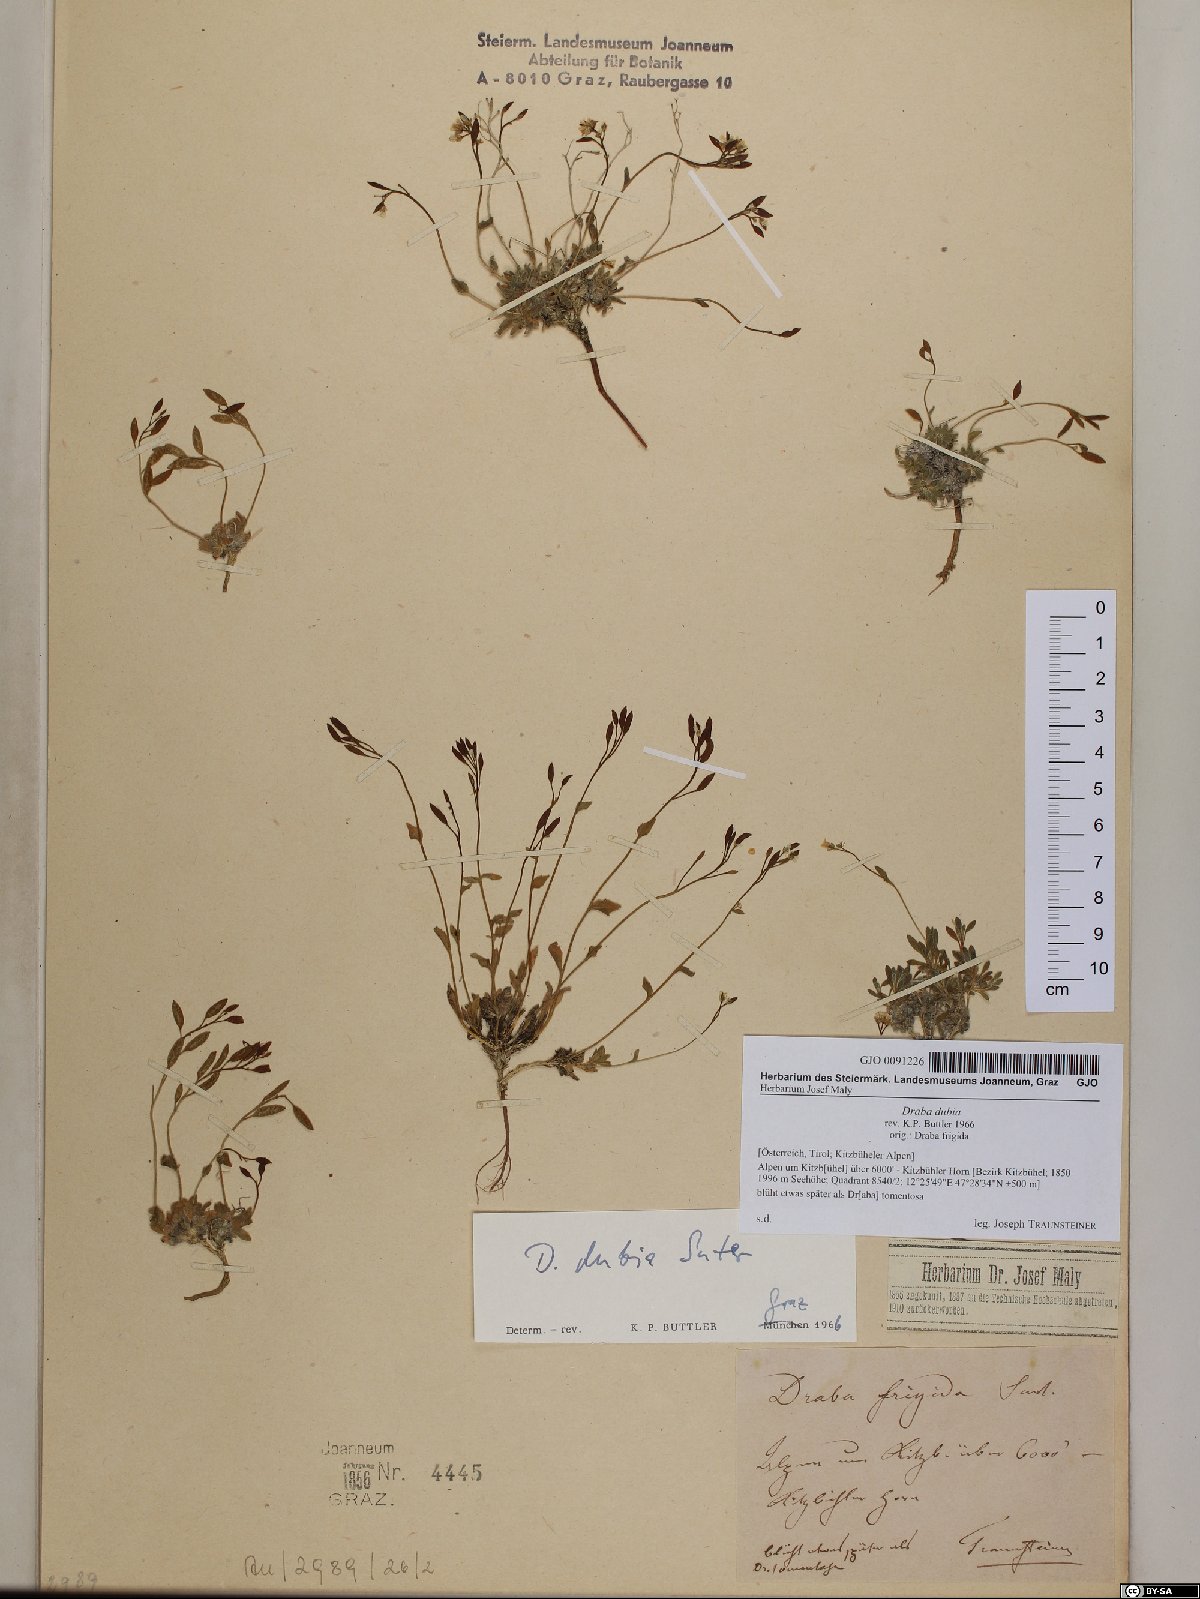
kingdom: Plantae
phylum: Tracheophyta
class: Magnoliopsida
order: Brassicales
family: Brassicaceae
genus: Draba
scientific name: Draba dubia
